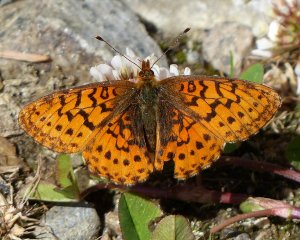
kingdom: Animalia
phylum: Arthropoda
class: Insecta
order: Lepidoptera
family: Nymphalidae
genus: Boloria
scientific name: Boloria epithore
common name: Pacific Fritillary
